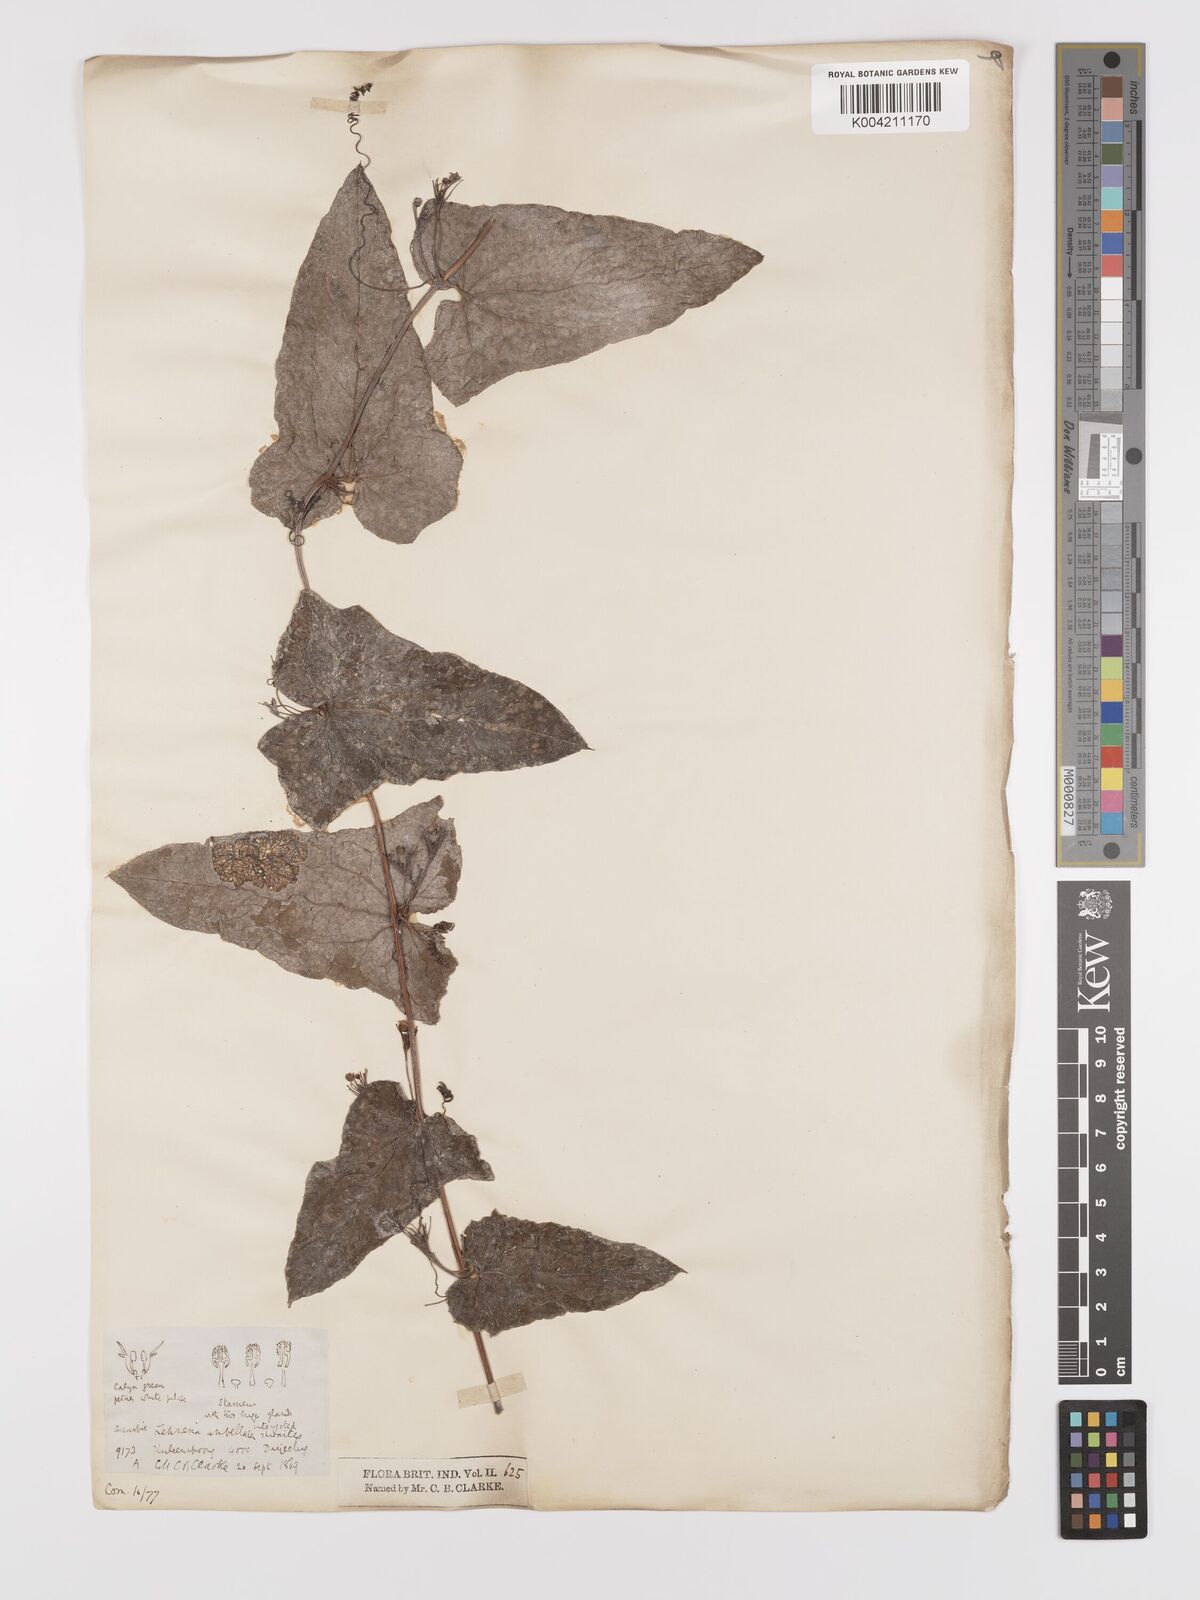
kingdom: Plantae
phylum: Tracheophyta
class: Magnoliopsida
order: Cucurbitales
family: Cucurbitaceae
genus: Solena
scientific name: Solena amplexicaulis
